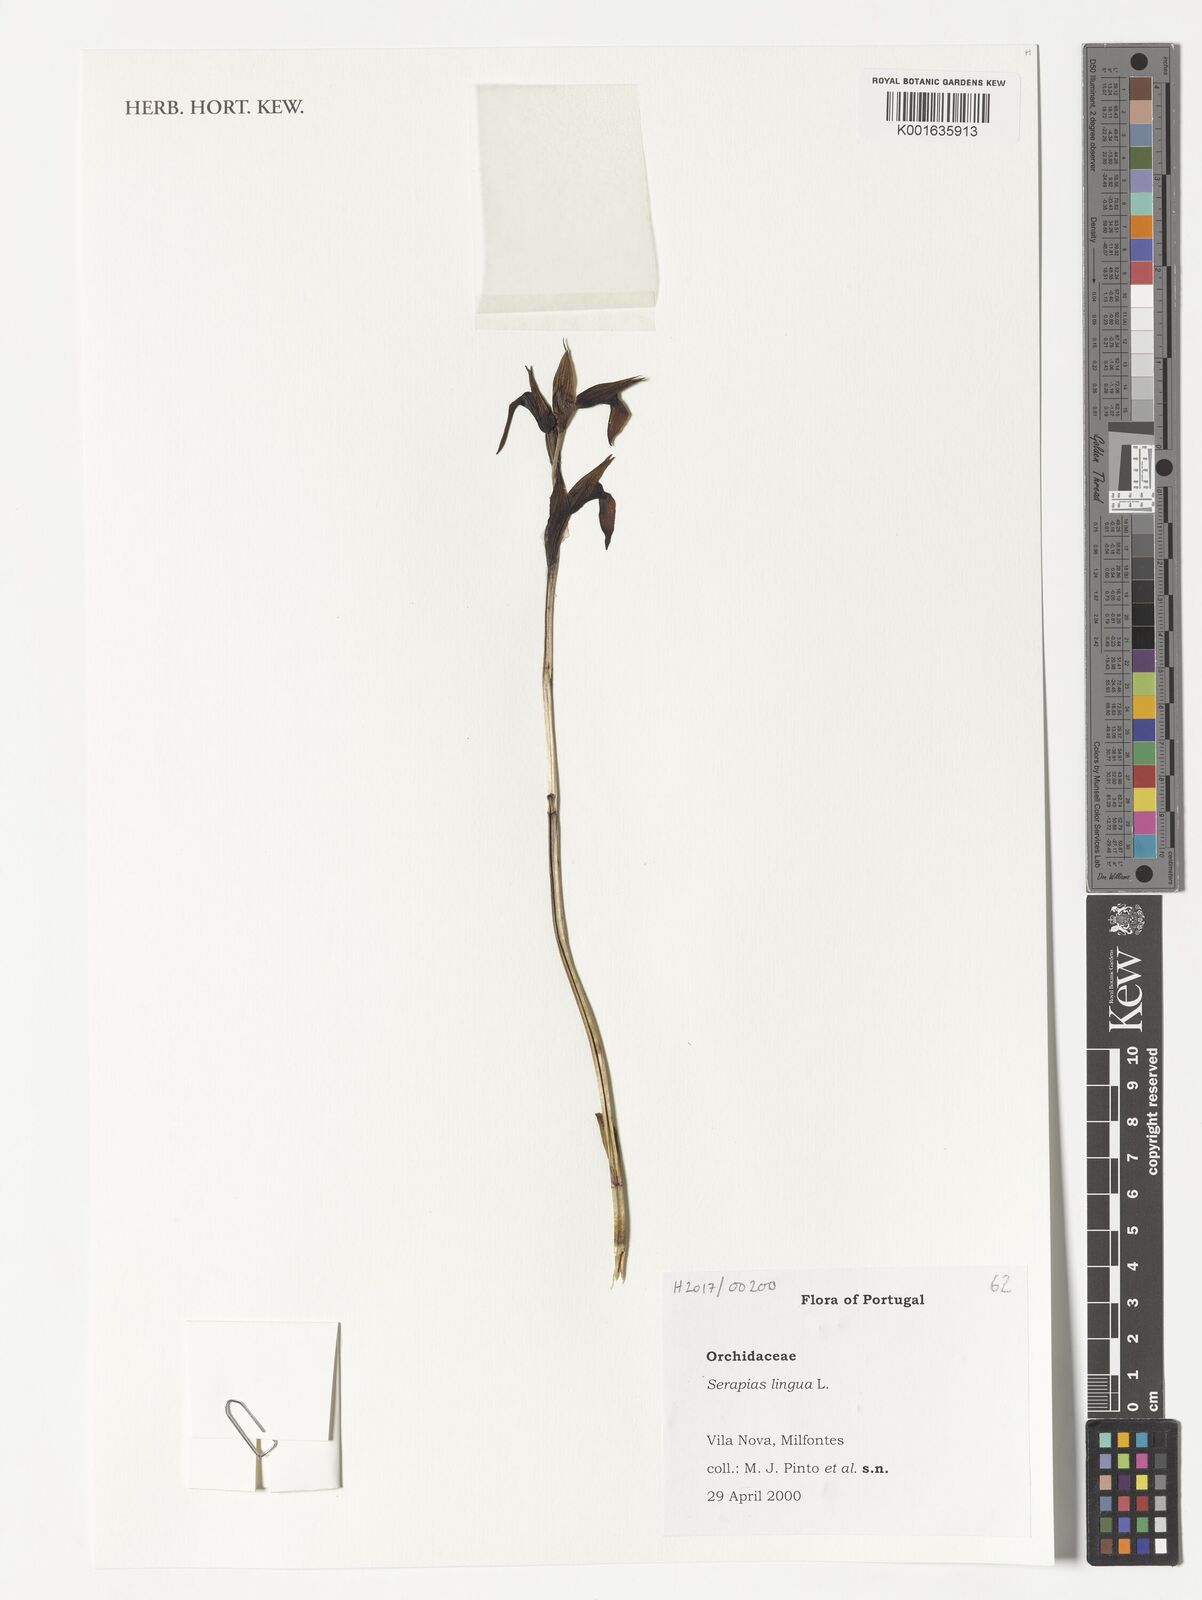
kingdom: Plantae
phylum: Tracheophyta
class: Liliopsida
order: Asparagales
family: Orchidaceae
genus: Serapias
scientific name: Serapias lingua
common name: Tongue-orchid
